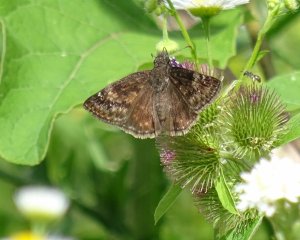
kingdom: Animalia
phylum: Arthropoda
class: Insecta
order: Lepidoptera
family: Hesperiidae
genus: Gesta
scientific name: Gesta
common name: Wild Indigo Duskywing
